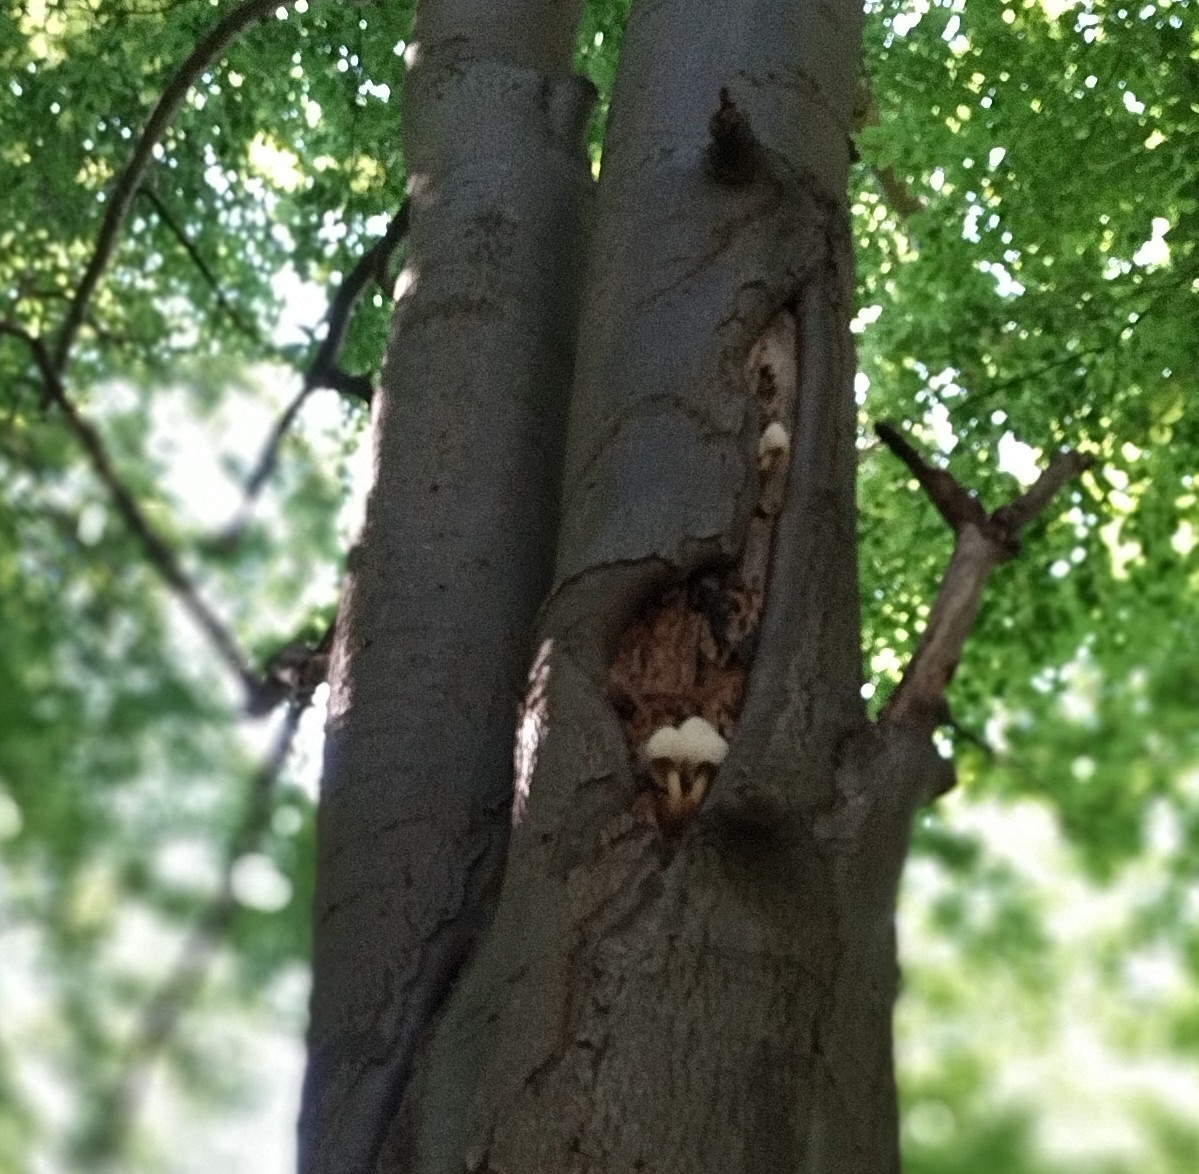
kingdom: Fungi
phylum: Basidiomycota
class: Agaricomycetes
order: Agaricales
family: Pluteaceae
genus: Volvariella
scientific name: Volvariella bombycina
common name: silkehåret posesvamp
